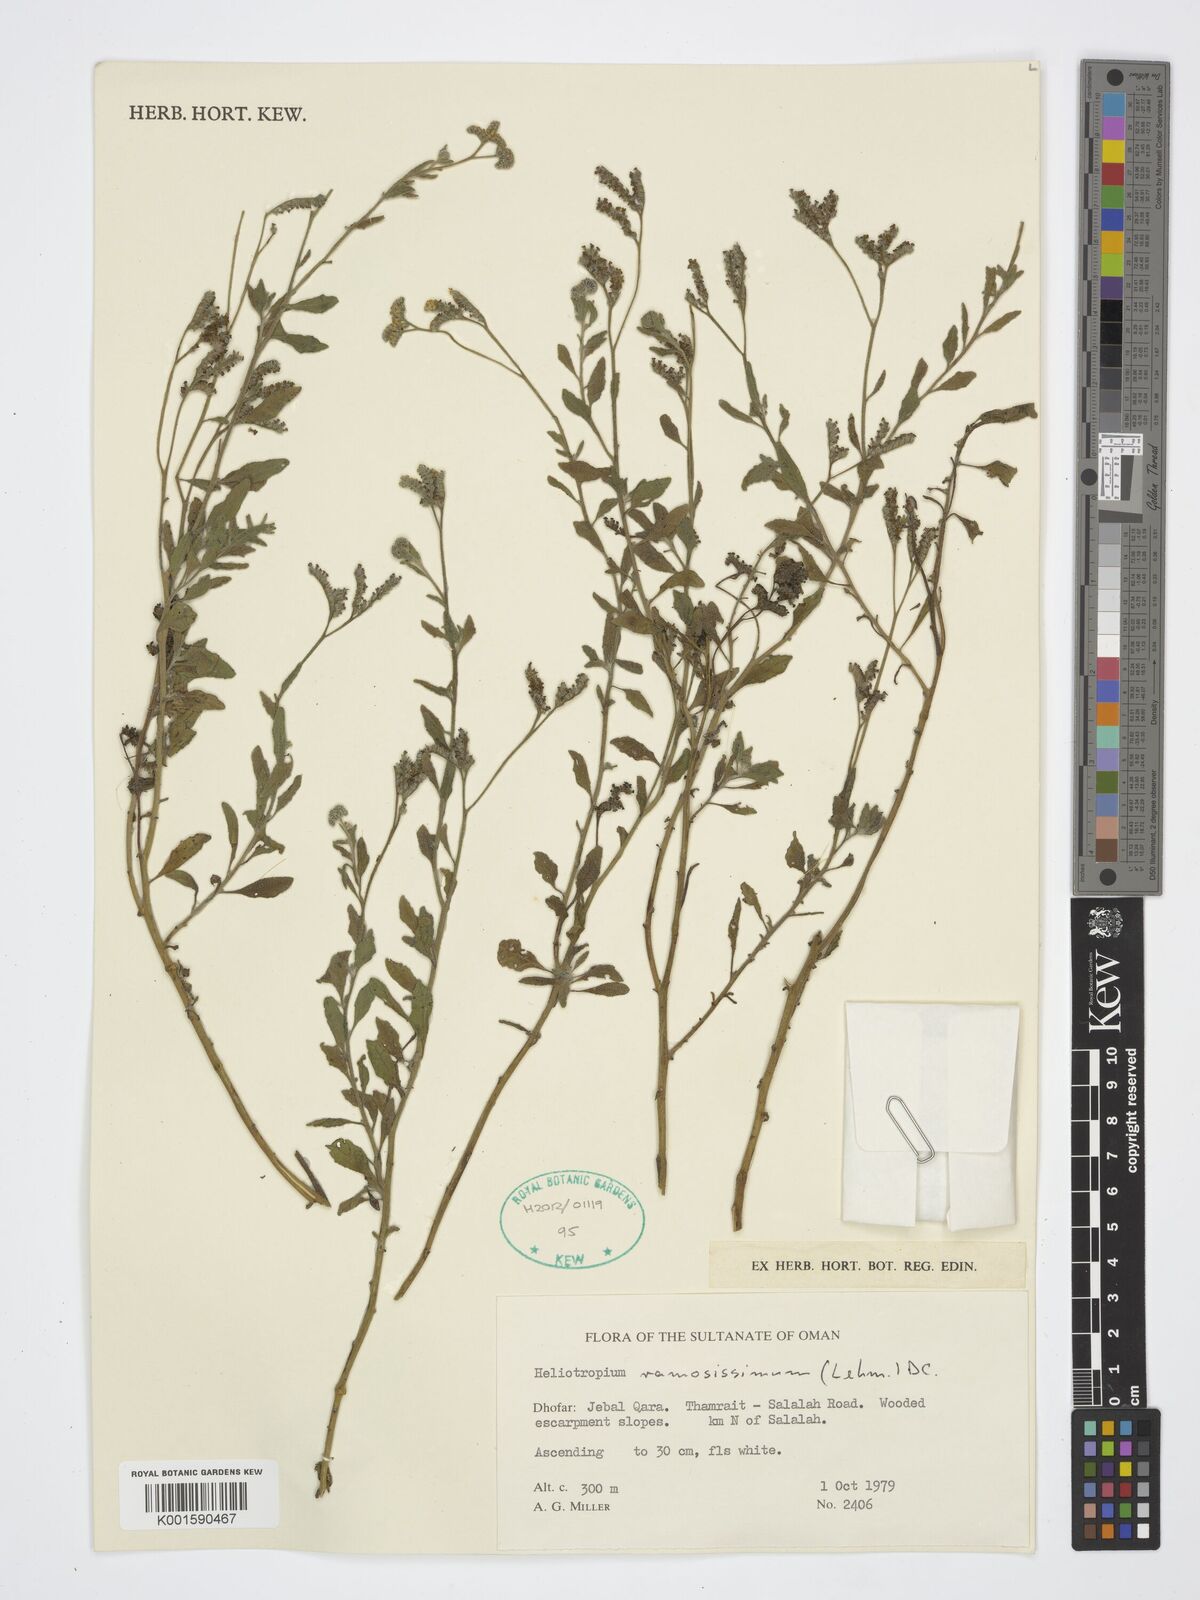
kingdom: Plantae
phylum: Tracheophyta
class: Magnoliopsida
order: Boraginales
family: Heliotropiaceae
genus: Heliotropium
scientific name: Heliotropium ramosissimum
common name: Wavy heliotrope
